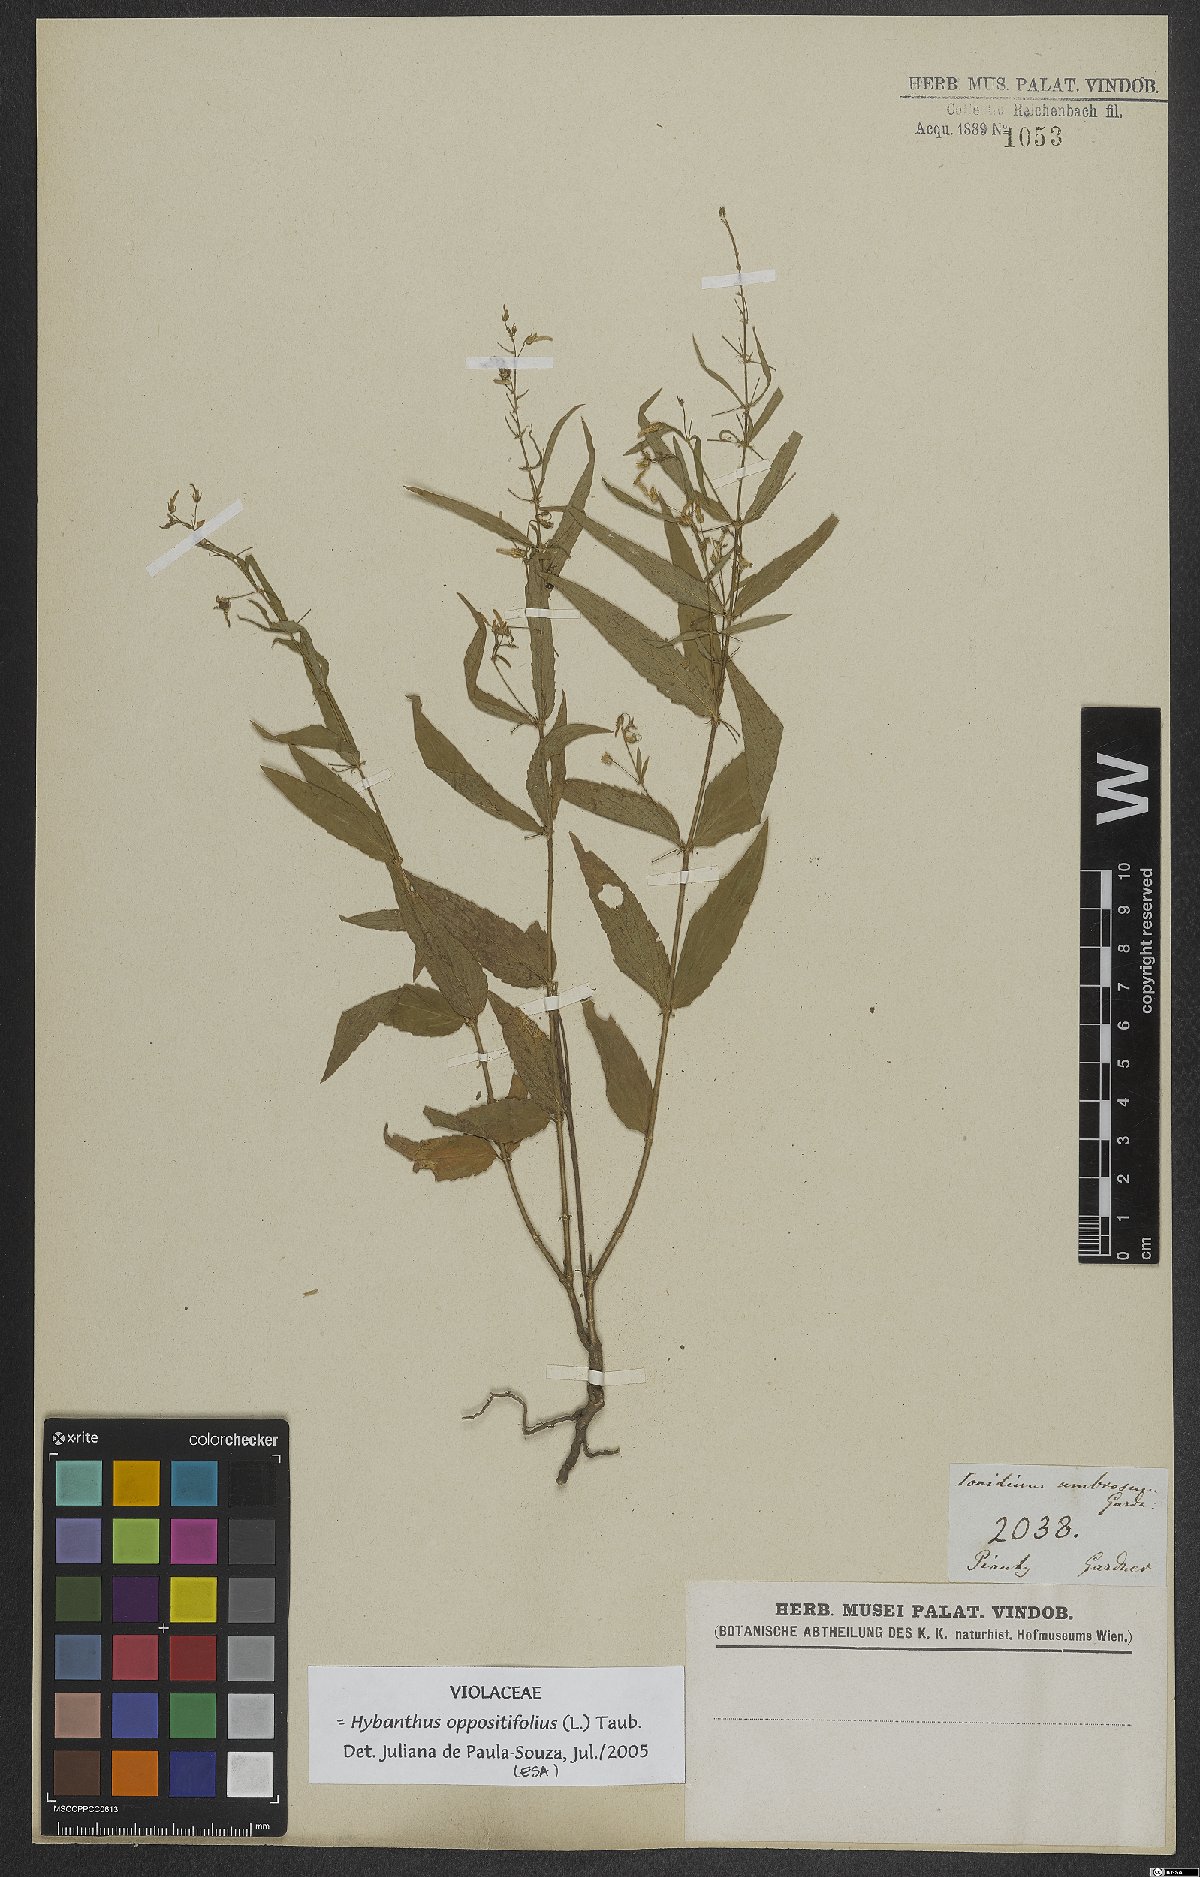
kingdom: Plantae
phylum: Tracheophyta
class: Magnoliopsida
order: Malpighiales
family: Violaceae
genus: Pombalia
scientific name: Pombalia oppositifolia
